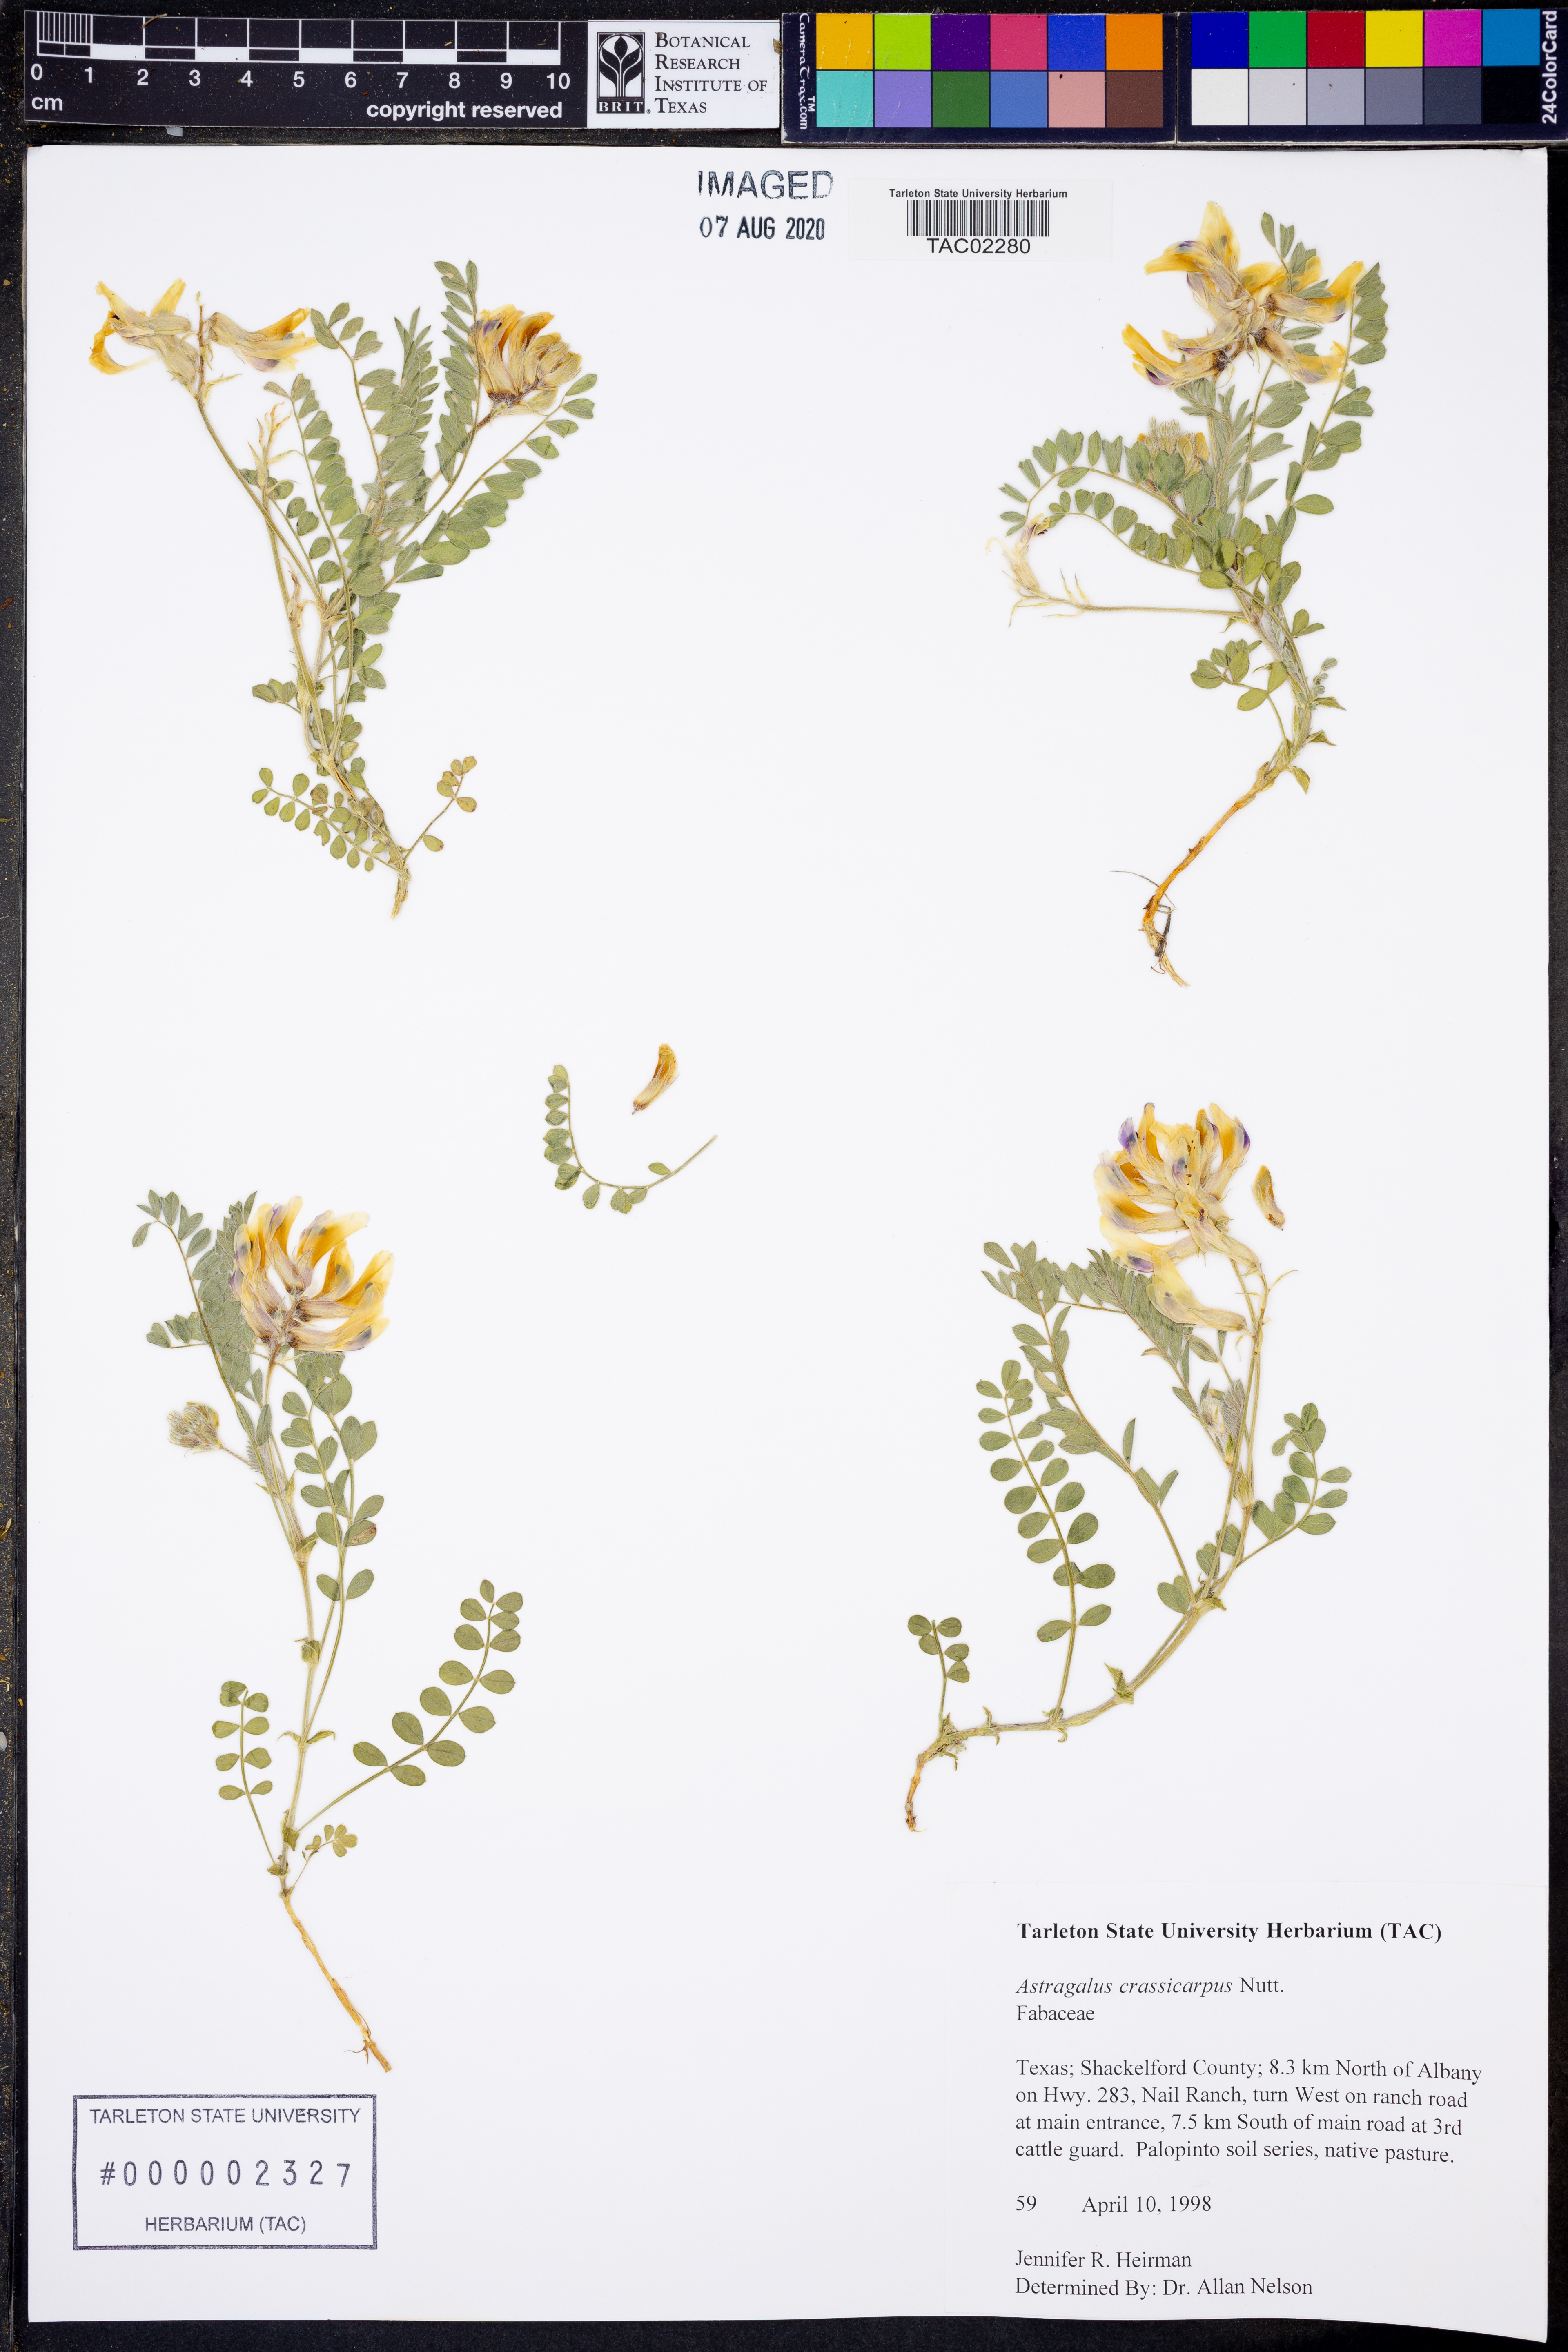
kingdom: Plantae
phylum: Tracheophyta
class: Magnoliopsida
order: Fabales
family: Fabaceae
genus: Astragalus
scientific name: Astragalus crassicarpus
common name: Ground-plum milk-vetch
